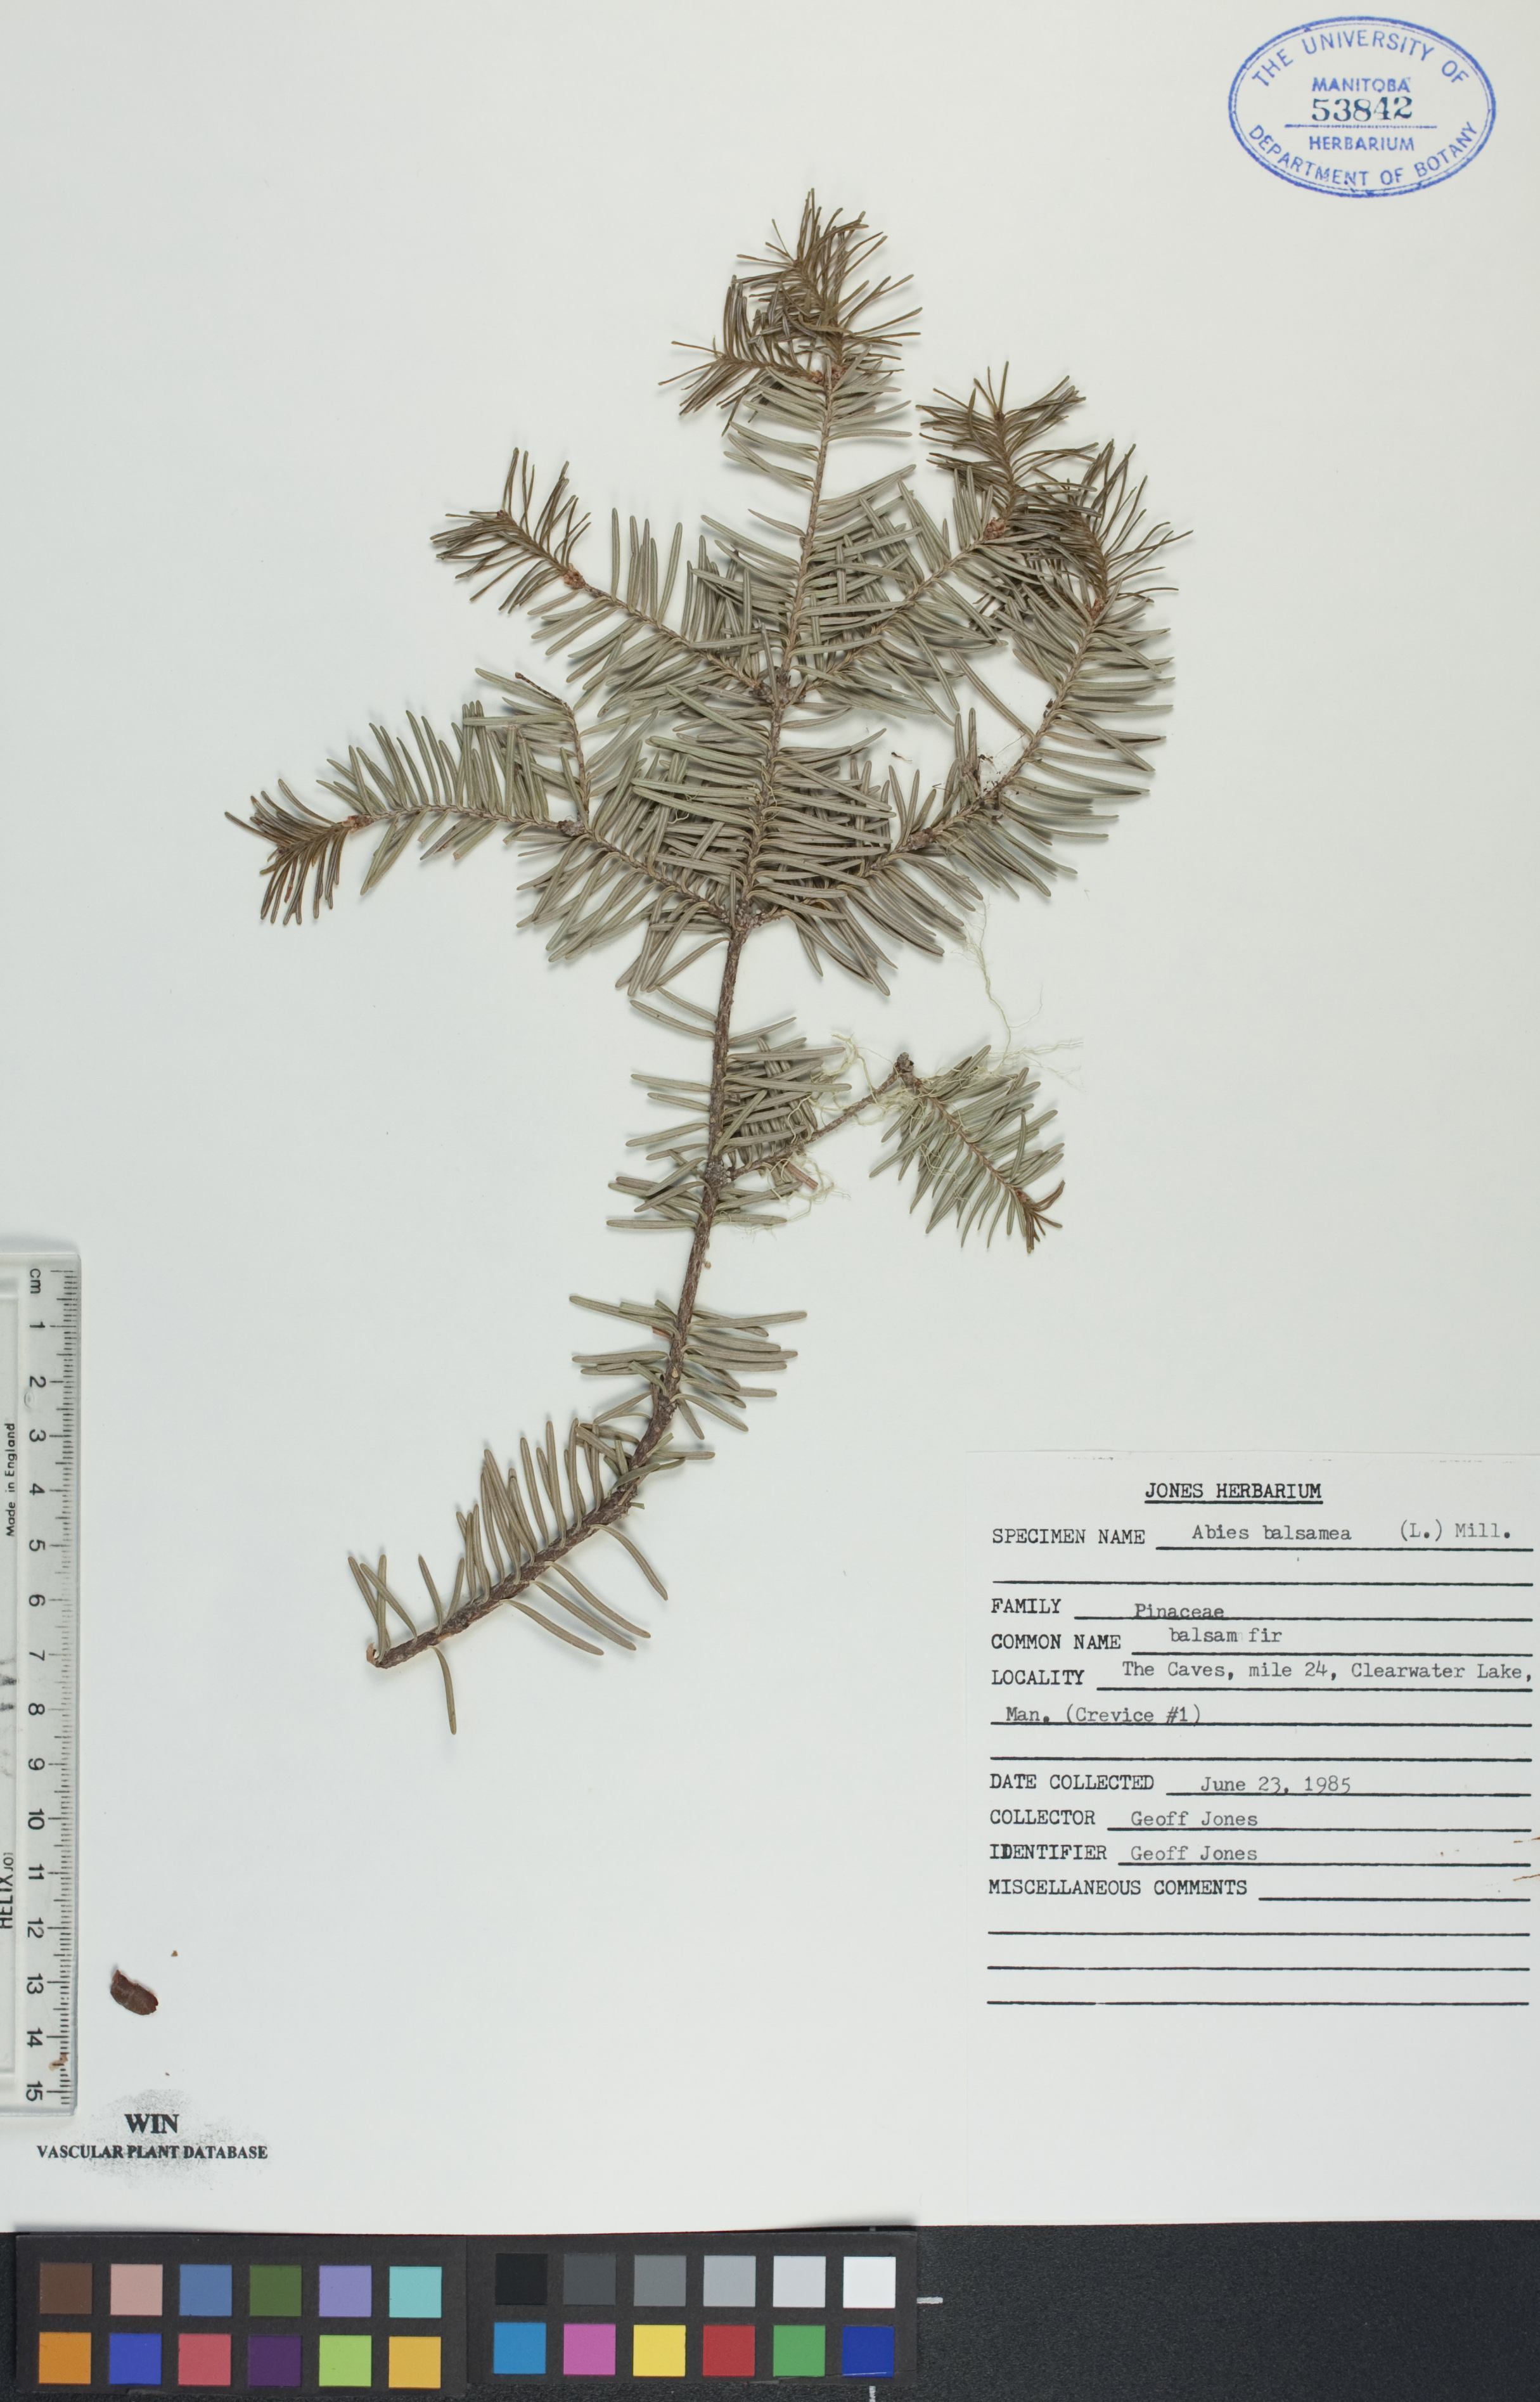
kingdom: Plantae
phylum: Tracheophyta
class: Pinopsida
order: Pinales
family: Pinaceae
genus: Abies
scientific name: Abies balsamea
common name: Balsam fir
